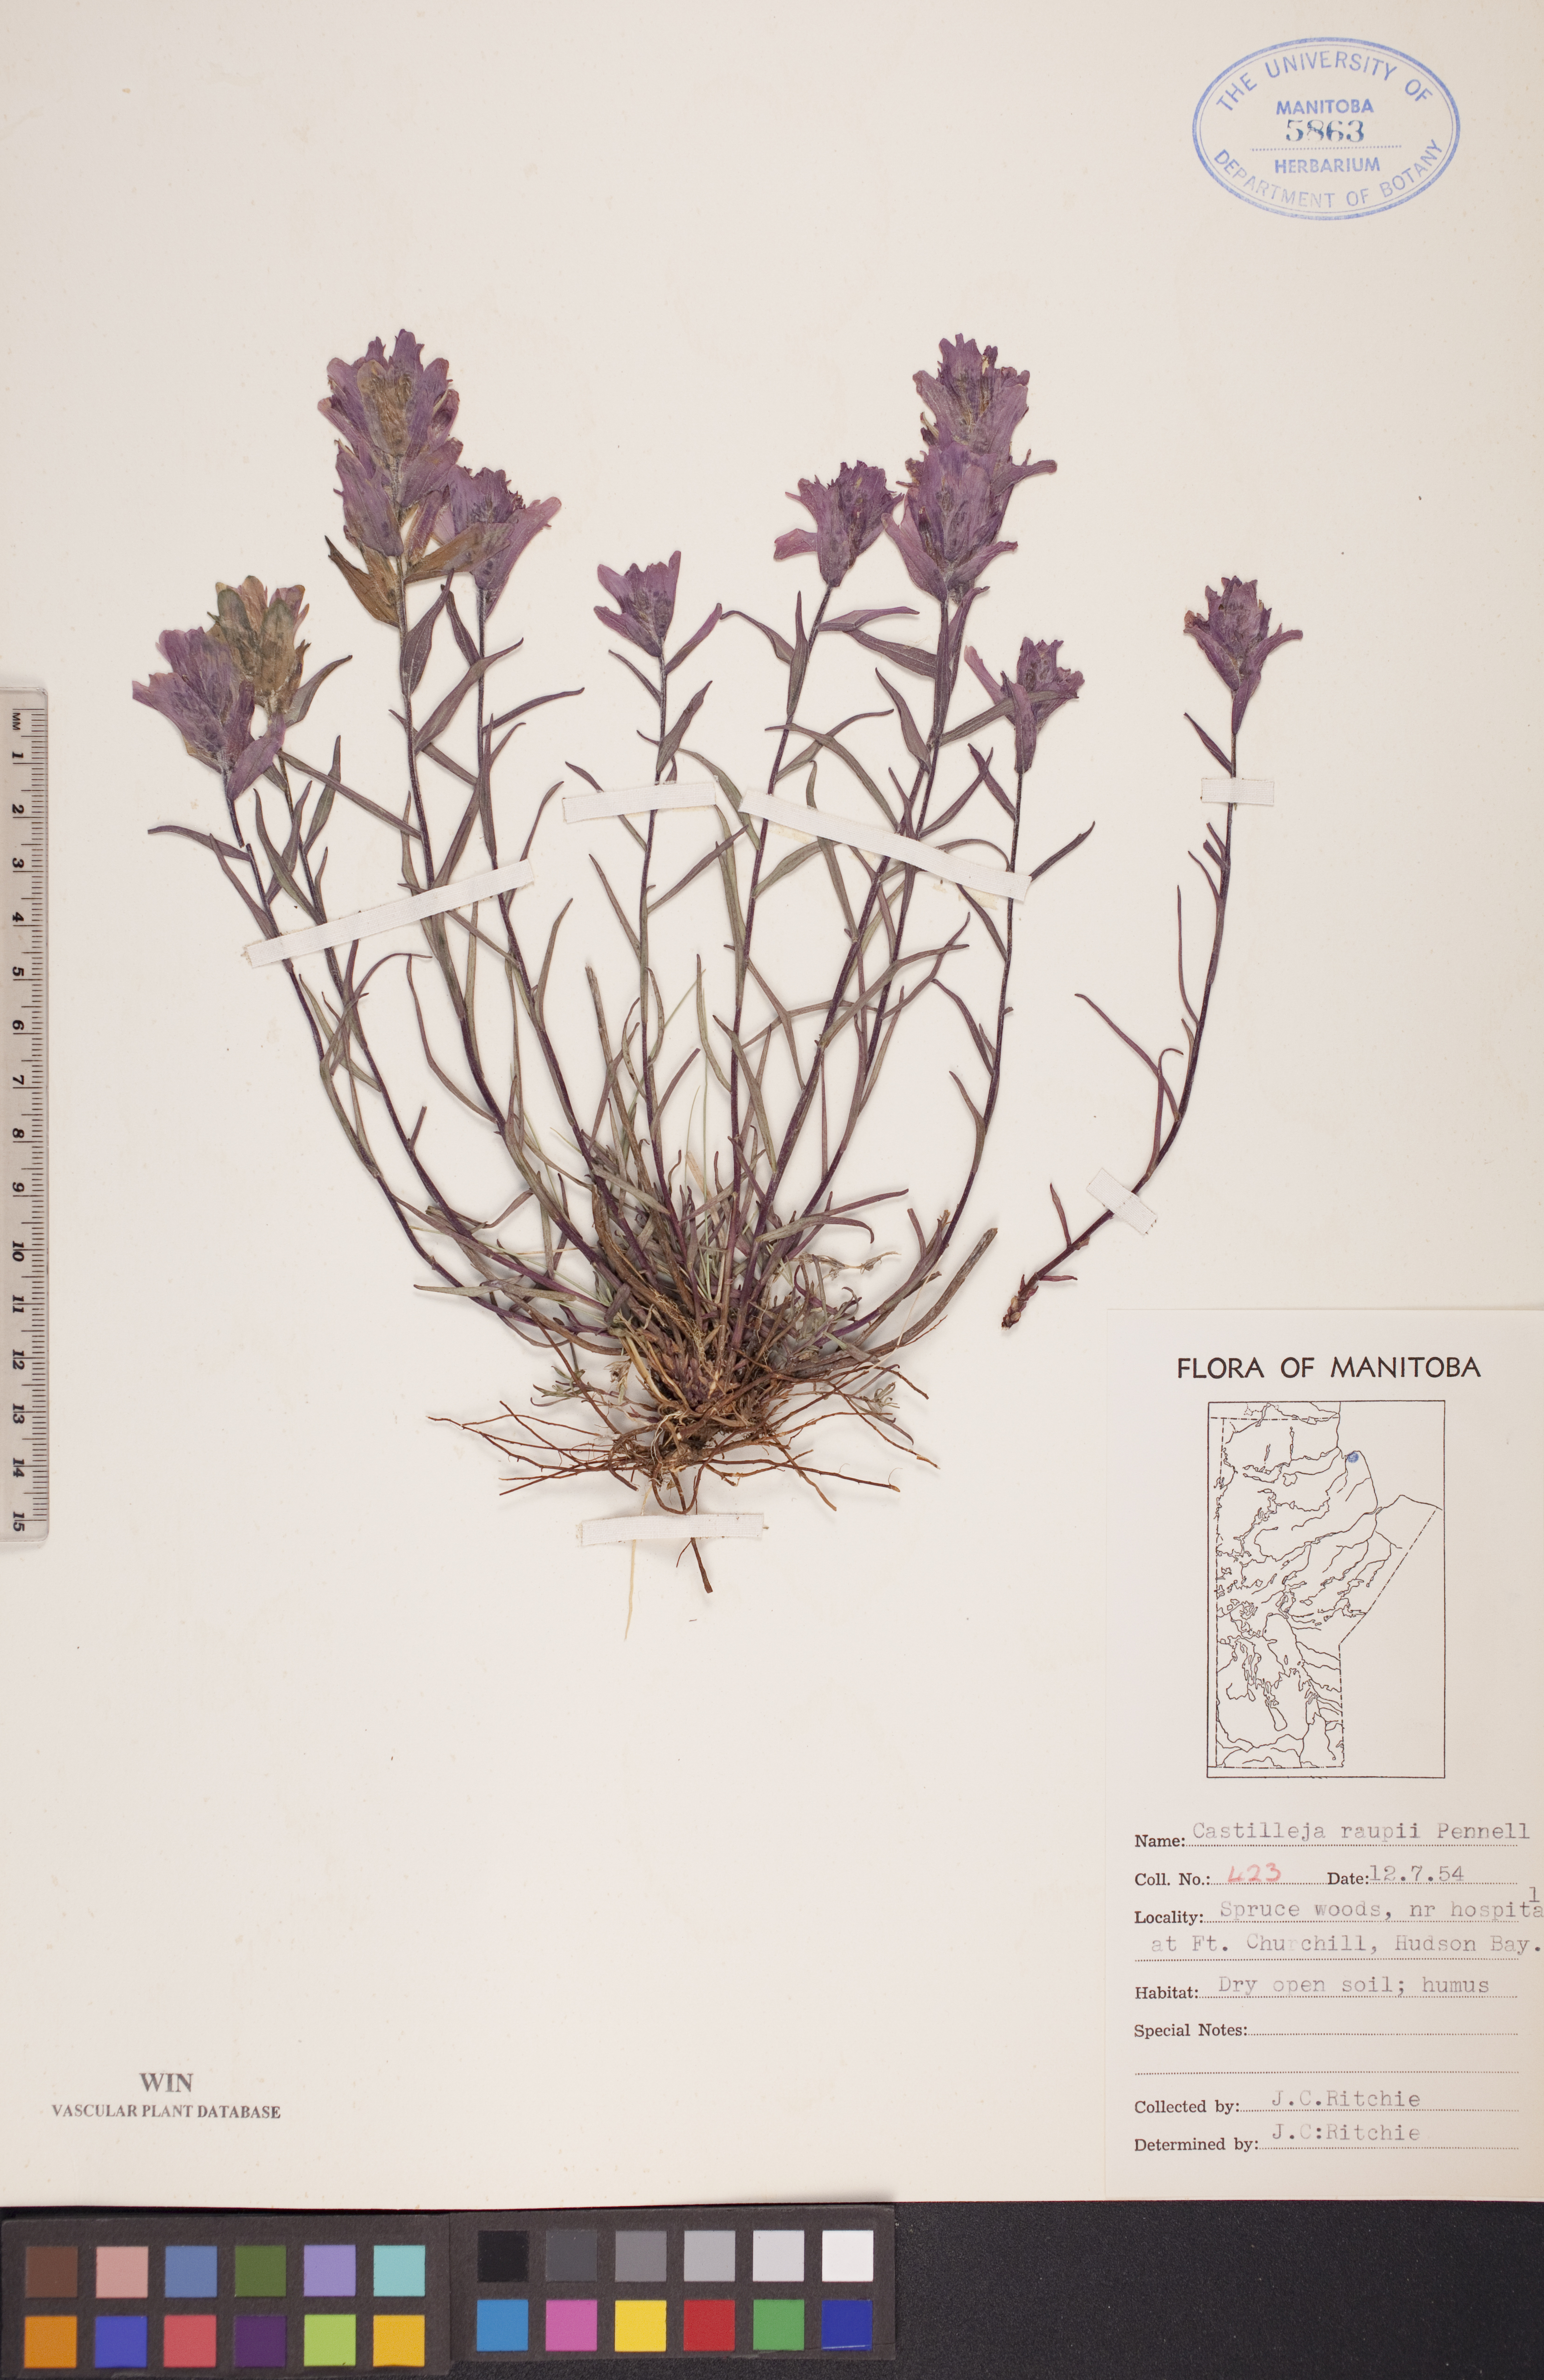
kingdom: Plantae
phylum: Tracheophyta
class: Magnoliopsida
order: Lamiales
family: Orobanchaceae
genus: Castilleja
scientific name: Castilleja raupii
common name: Raup's paintbrush
